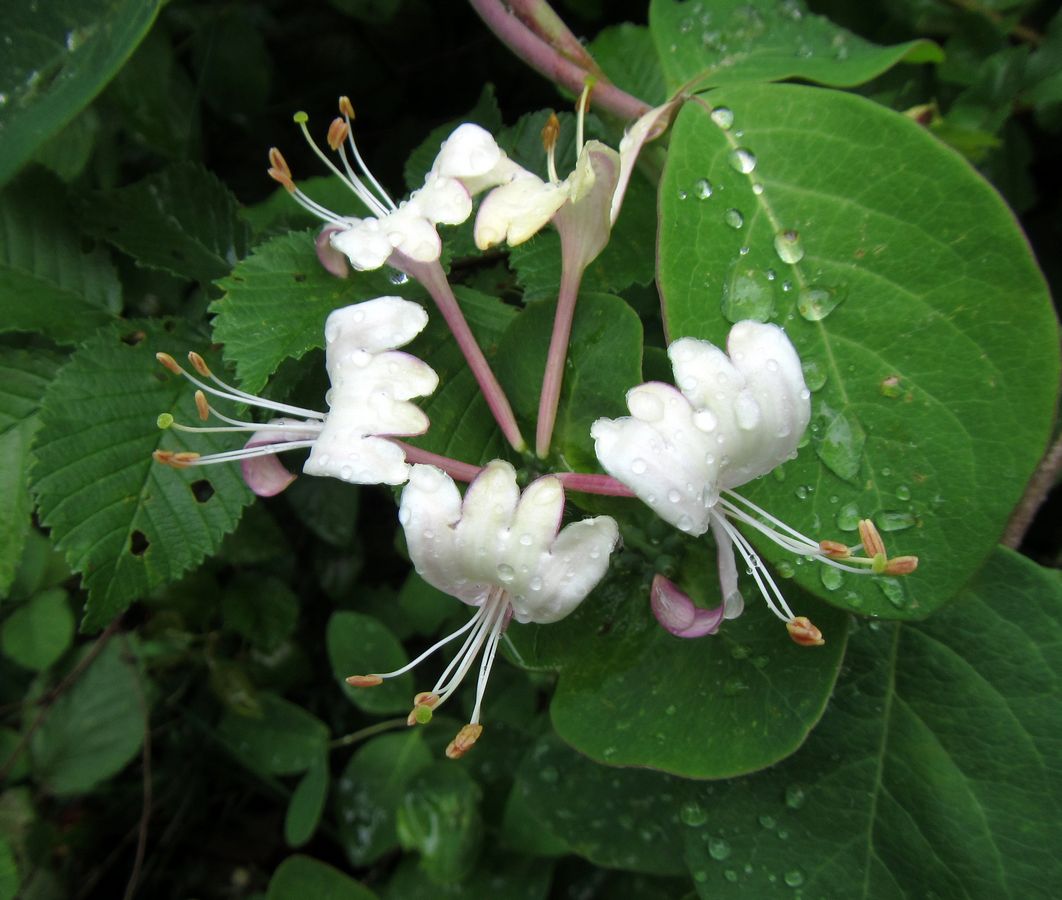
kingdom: Plantae
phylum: Tracheophyta
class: Magnoliopsida
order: Dipsacales
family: Caprifoliaceae
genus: Lonicera
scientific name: Lonicera caprifolium
